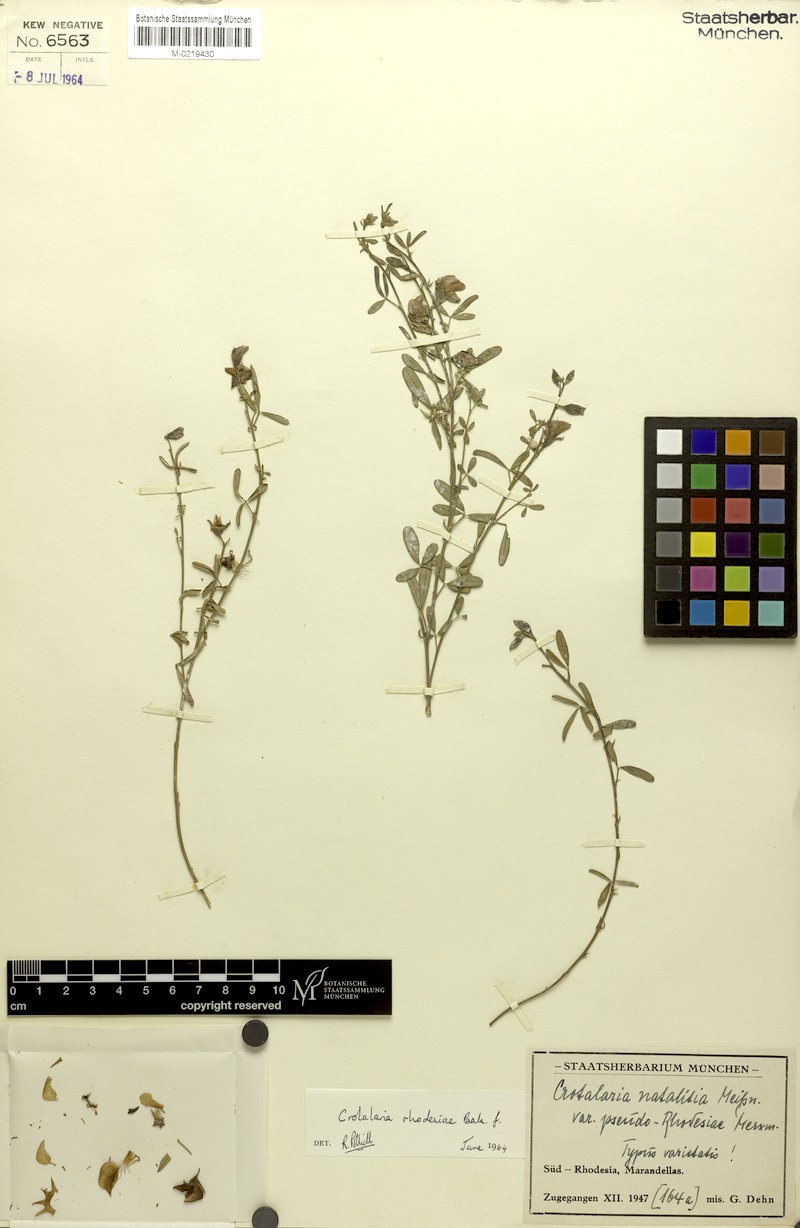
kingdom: Plantae
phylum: Tracheophyta
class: Magnoliopsida
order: Fabales
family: Fabaceae
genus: Crotalaria
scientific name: Crotalaria rhodesiae
